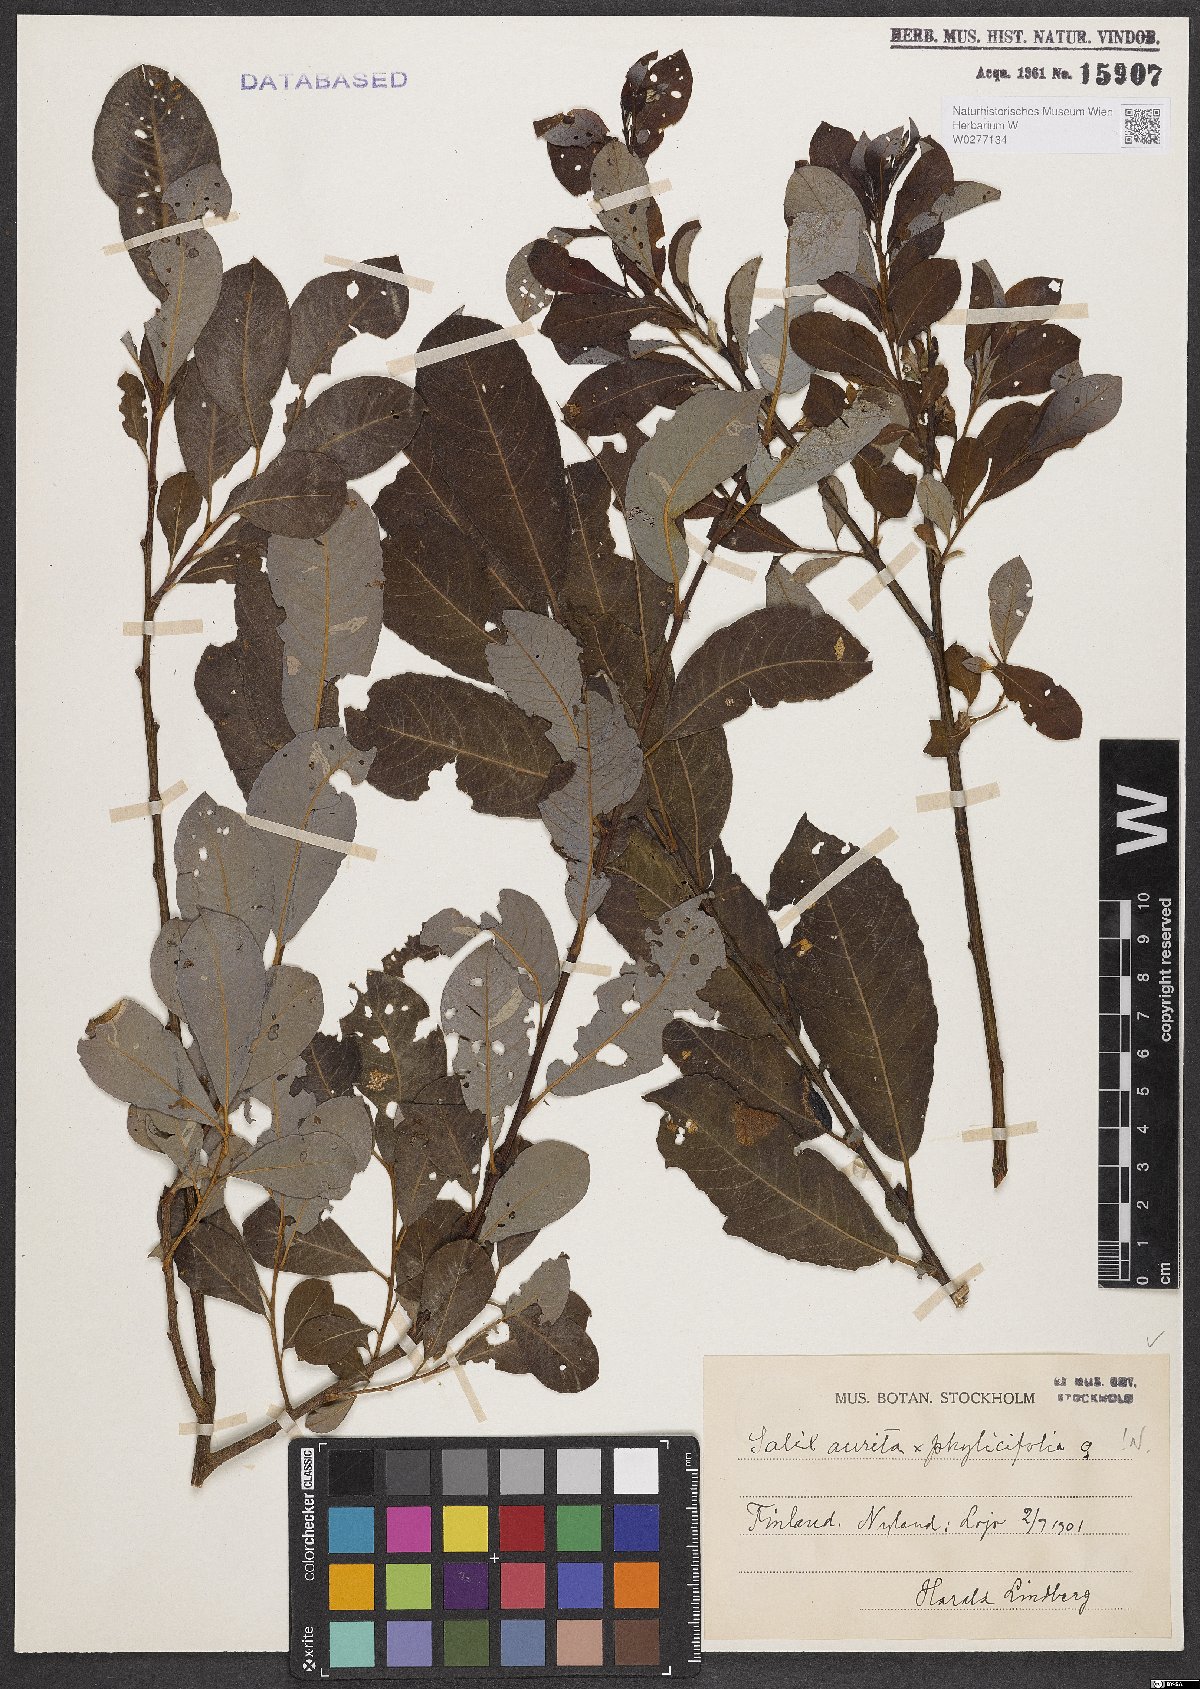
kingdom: Plantae
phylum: Tracheophyta
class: Magnoliopsida
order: Malpighiales
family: Salicaceae
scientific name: Salicaceae
